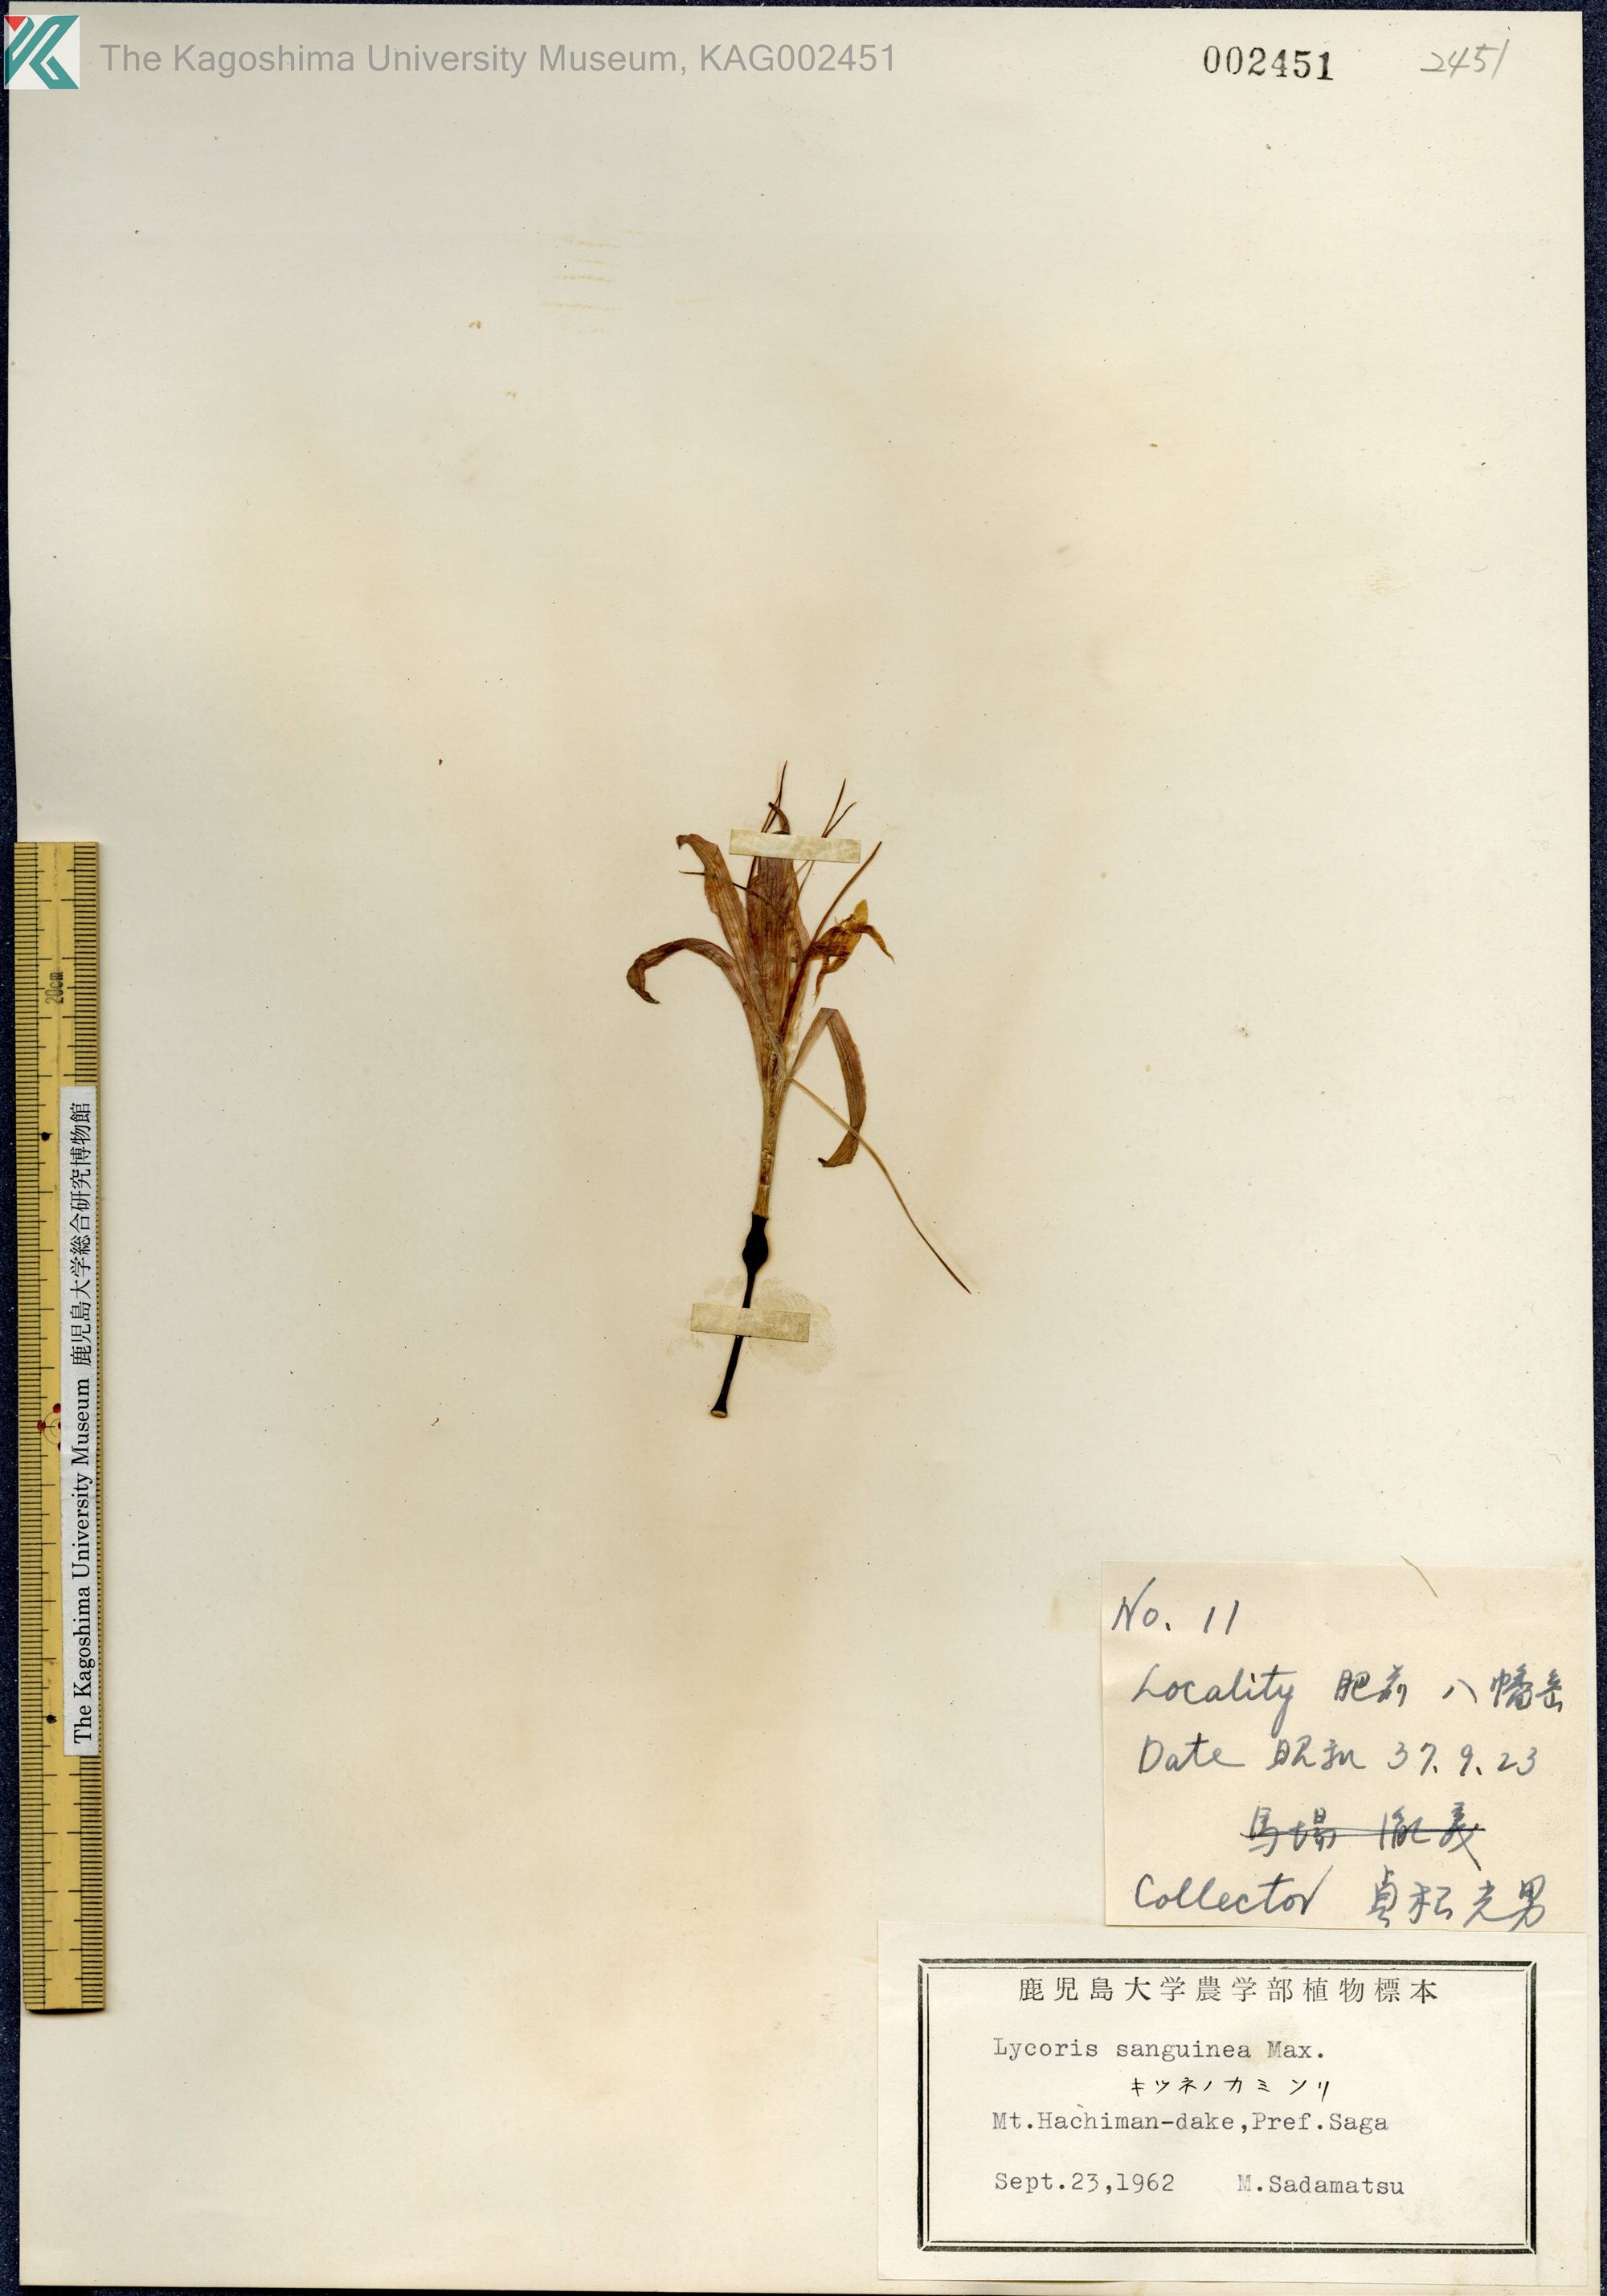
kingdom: Plantae
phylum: Tracheophyta
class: Liliopsida
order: Asparagales
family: Amaryllidaceae
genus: Lycoris
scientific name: Lycoris sanguinea
